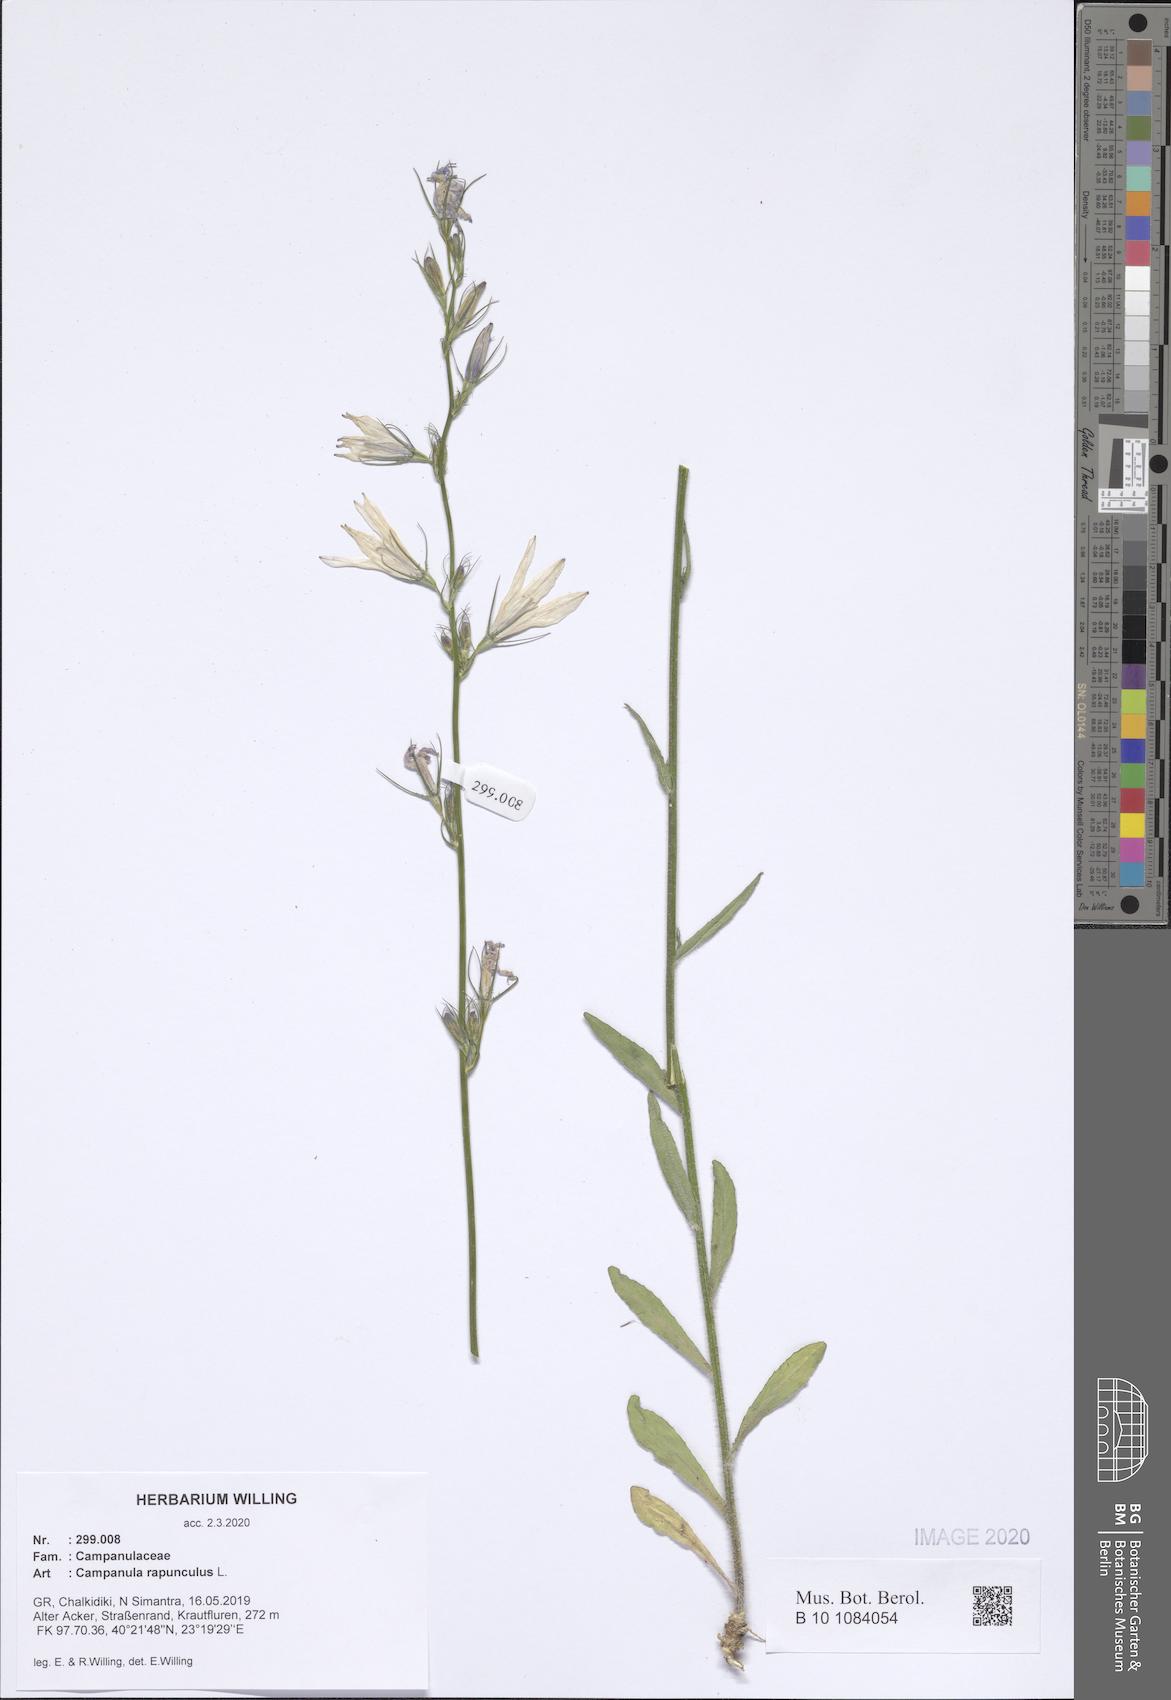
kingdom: Plantae
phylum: Tracheophyta
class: Magnoliopsida
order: Asterales
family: Campanulaceae
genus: Campanula
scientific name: Campanula rapunculus
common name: Rampion bellflower
